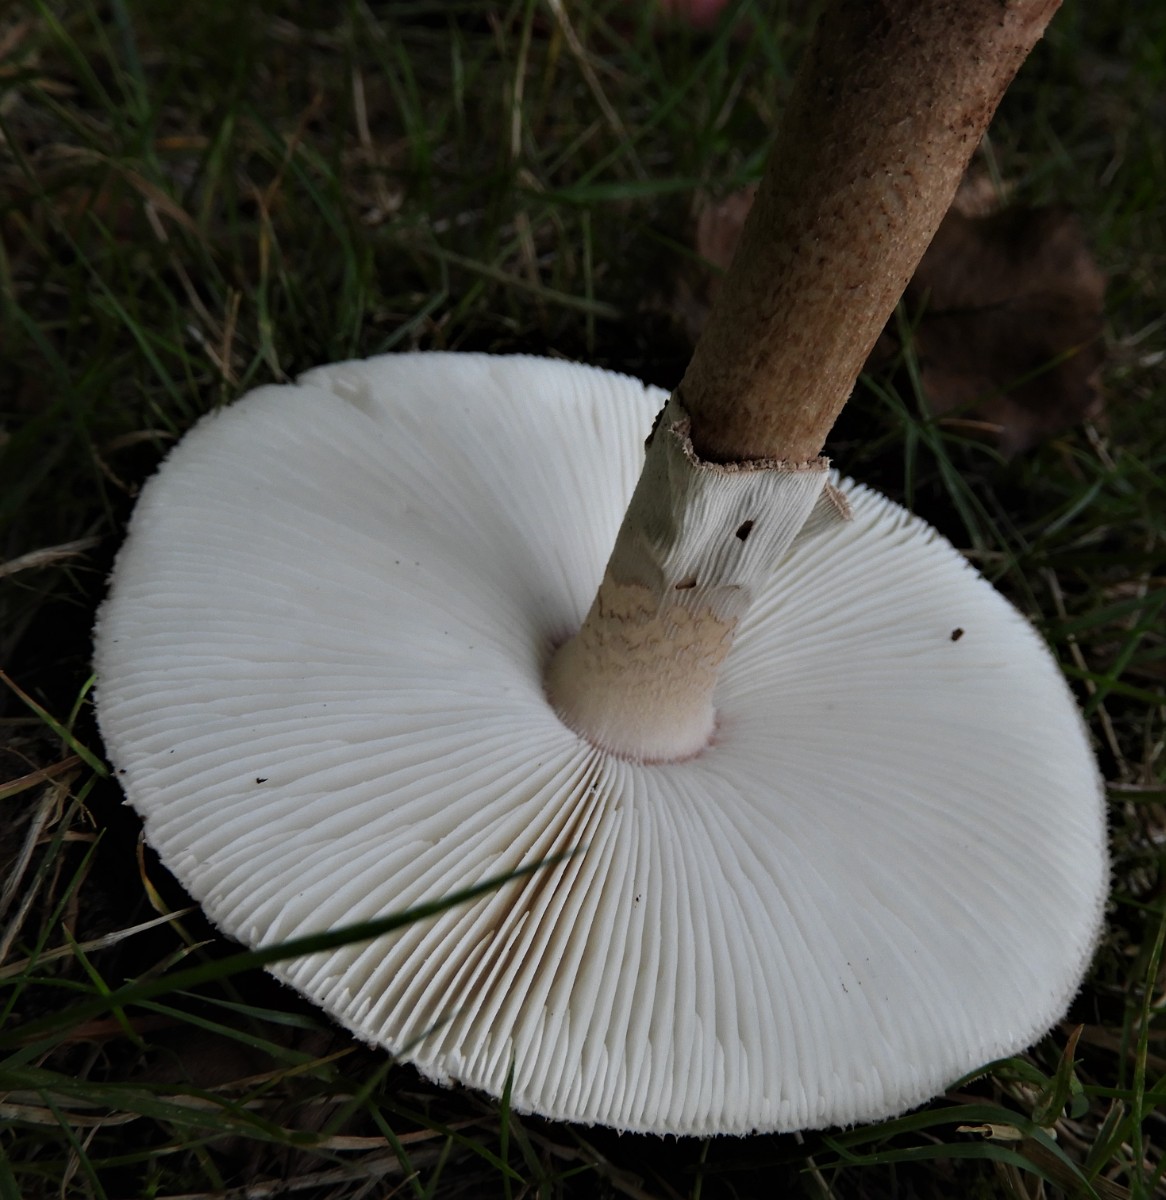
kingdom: Fungi
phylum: Basidiomycota
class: Agaricomycetes
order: Agaricales
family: Amanitaceae
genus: Amanita
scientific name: Amanita rubescens
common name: rødmende fluesvamp
